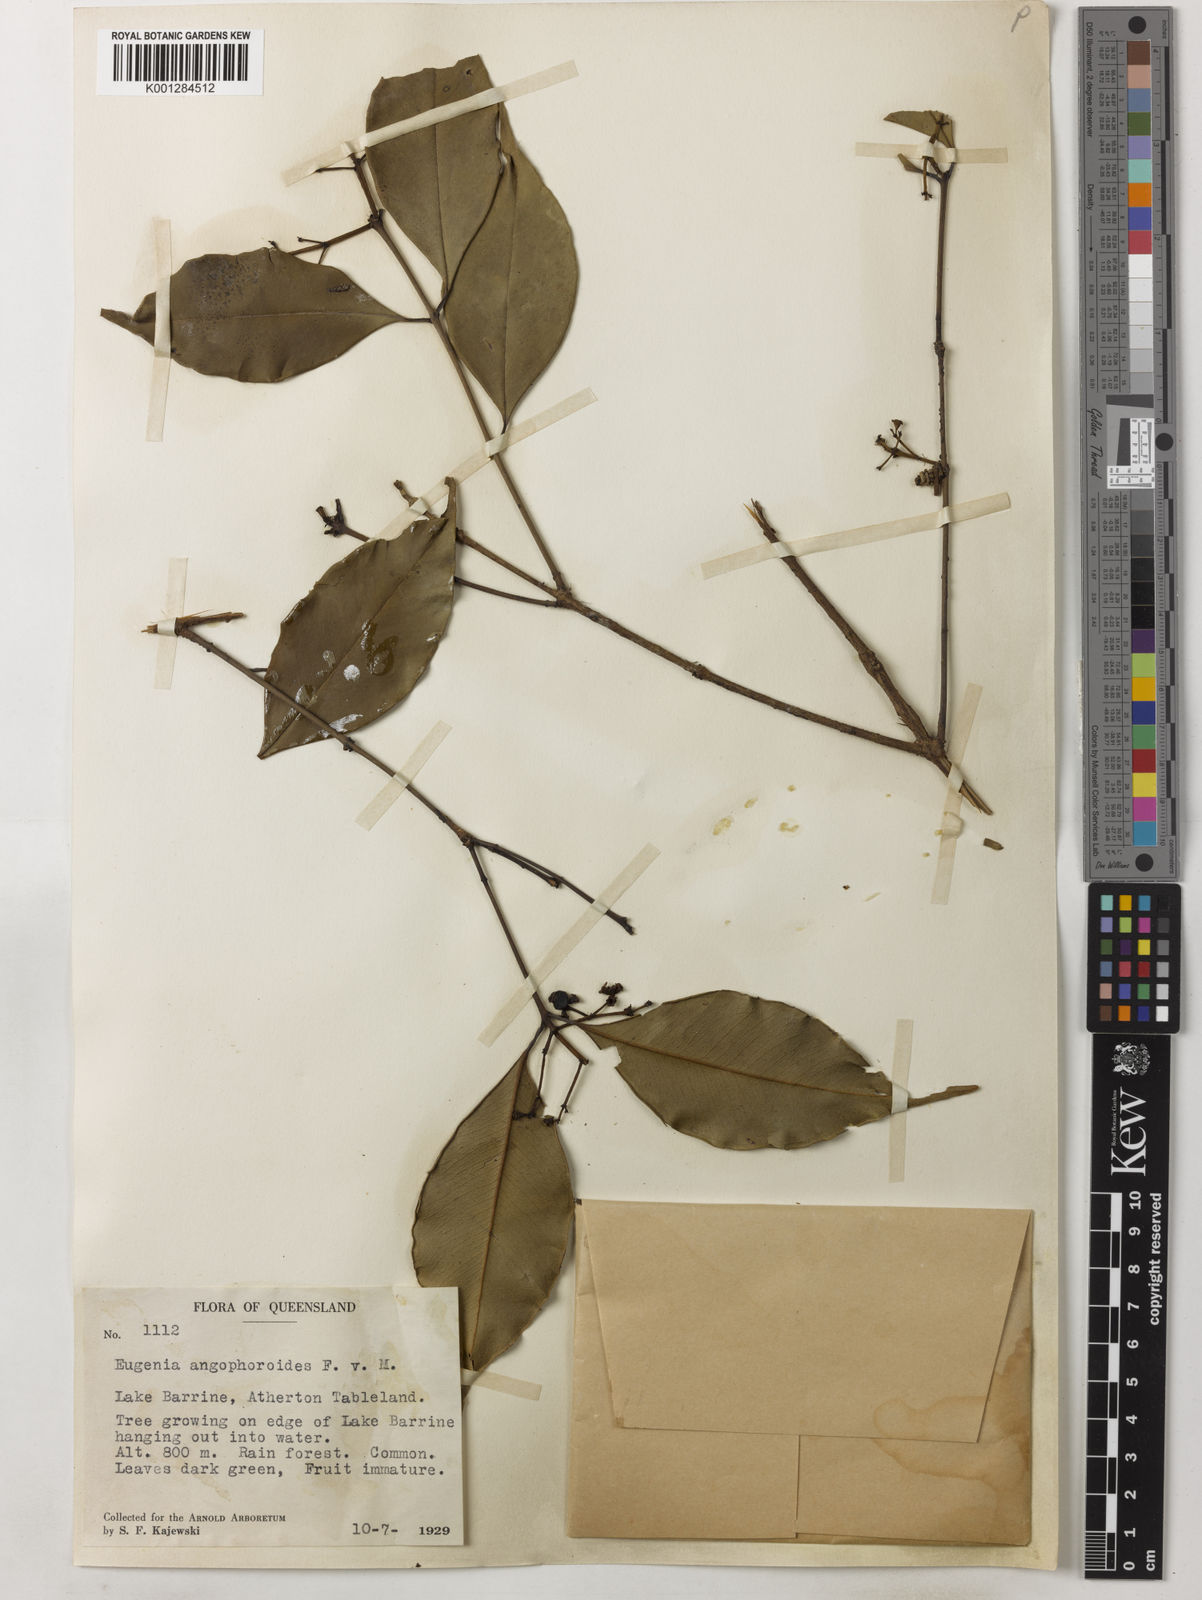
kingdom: Plantae
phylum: Tracheophyta
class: Magnoliopsida
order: Myrtales
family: Myrtaceae
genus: Syzygium
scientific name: Syzygium angophoroides
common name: Swamp satinash
